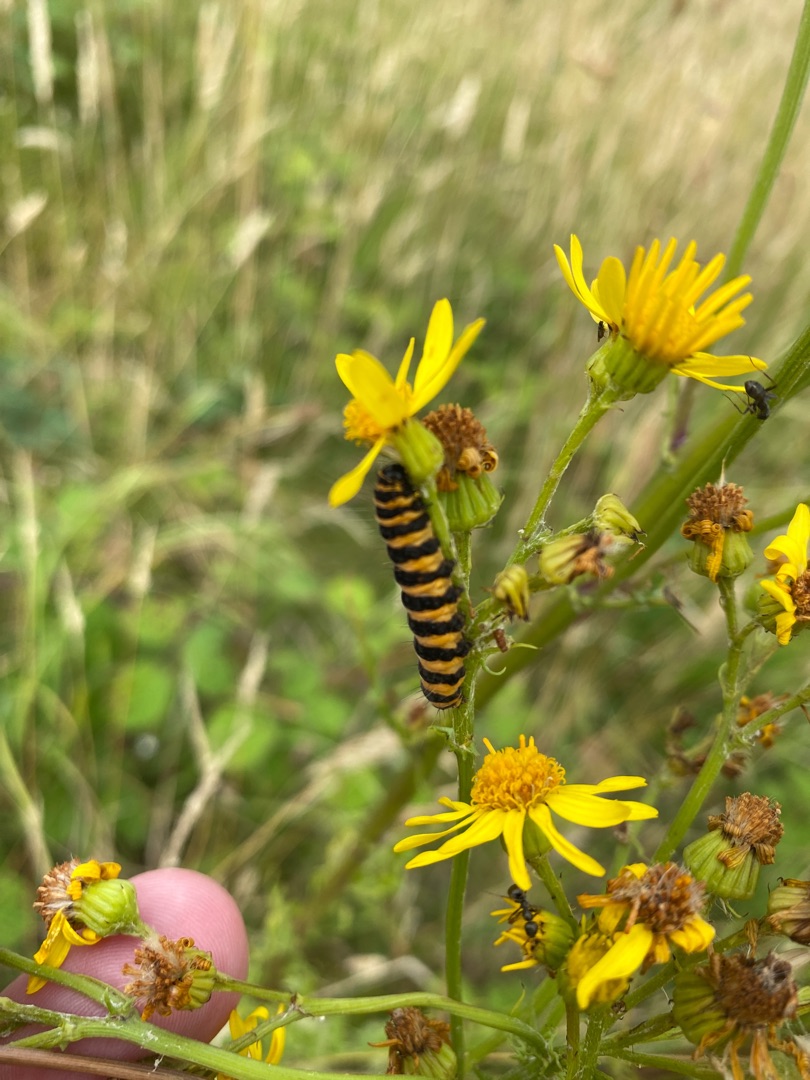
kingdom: Animalia
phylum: Arthropoda
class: Insecta
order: Lepidoptera
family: Erebidae
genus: Tyria
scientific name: Tyria jacobaeae
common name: Blodplet
